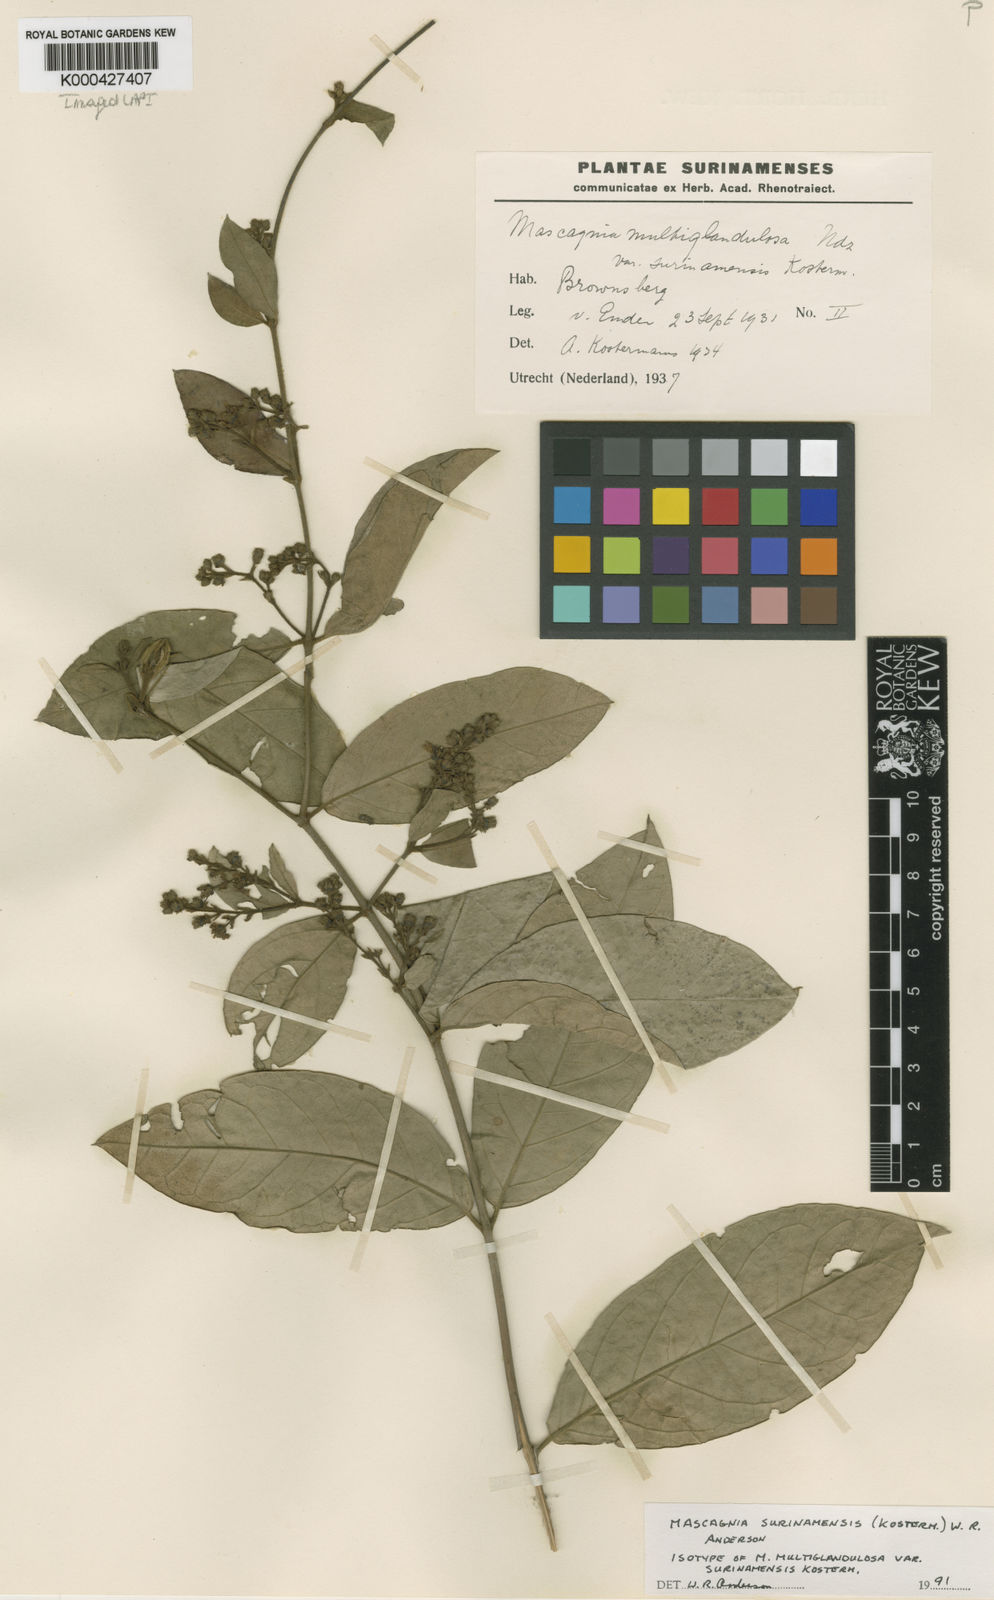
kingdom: Plantae
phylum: Tracheophyta
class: Magnoliopsida
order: Malpighiales
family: Malpighiaceae
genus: Christianella
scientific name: Christianella surinamensis
